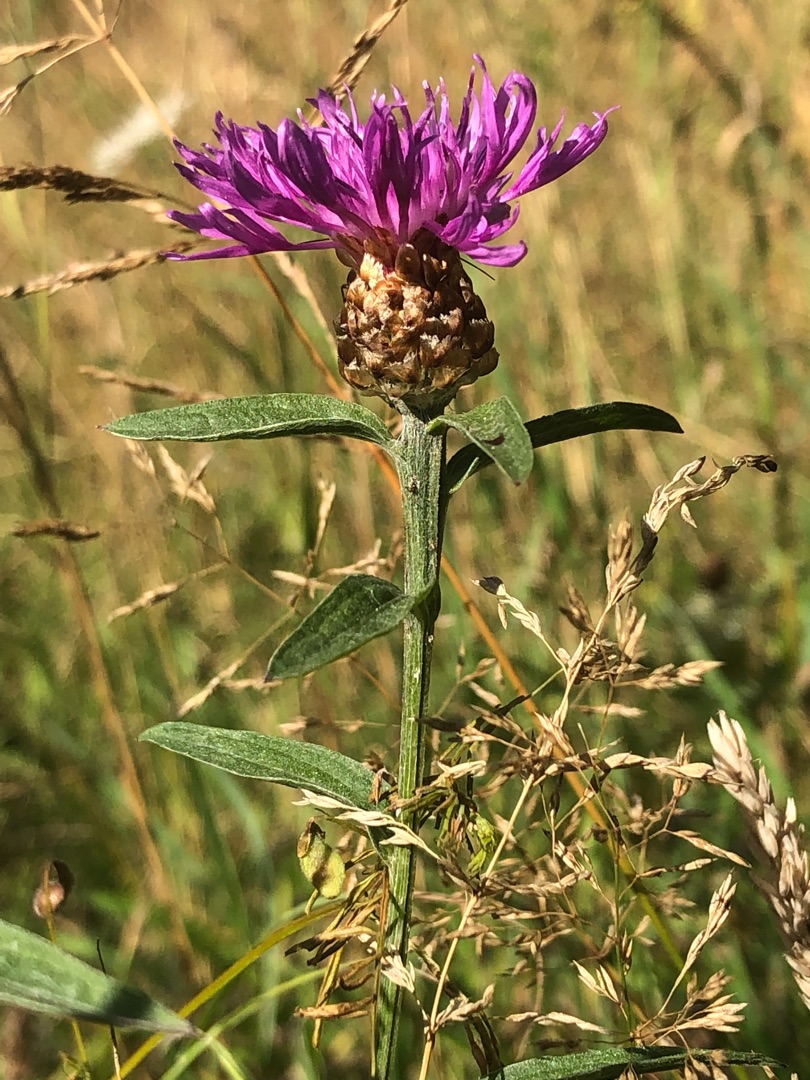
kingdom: Plantae
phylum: Tracheophyta
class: Magnoliopsida
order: Asterales
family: Asteraceae
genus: Centaurea
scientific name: Centaurea jacea
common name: Almindelig knopurt
